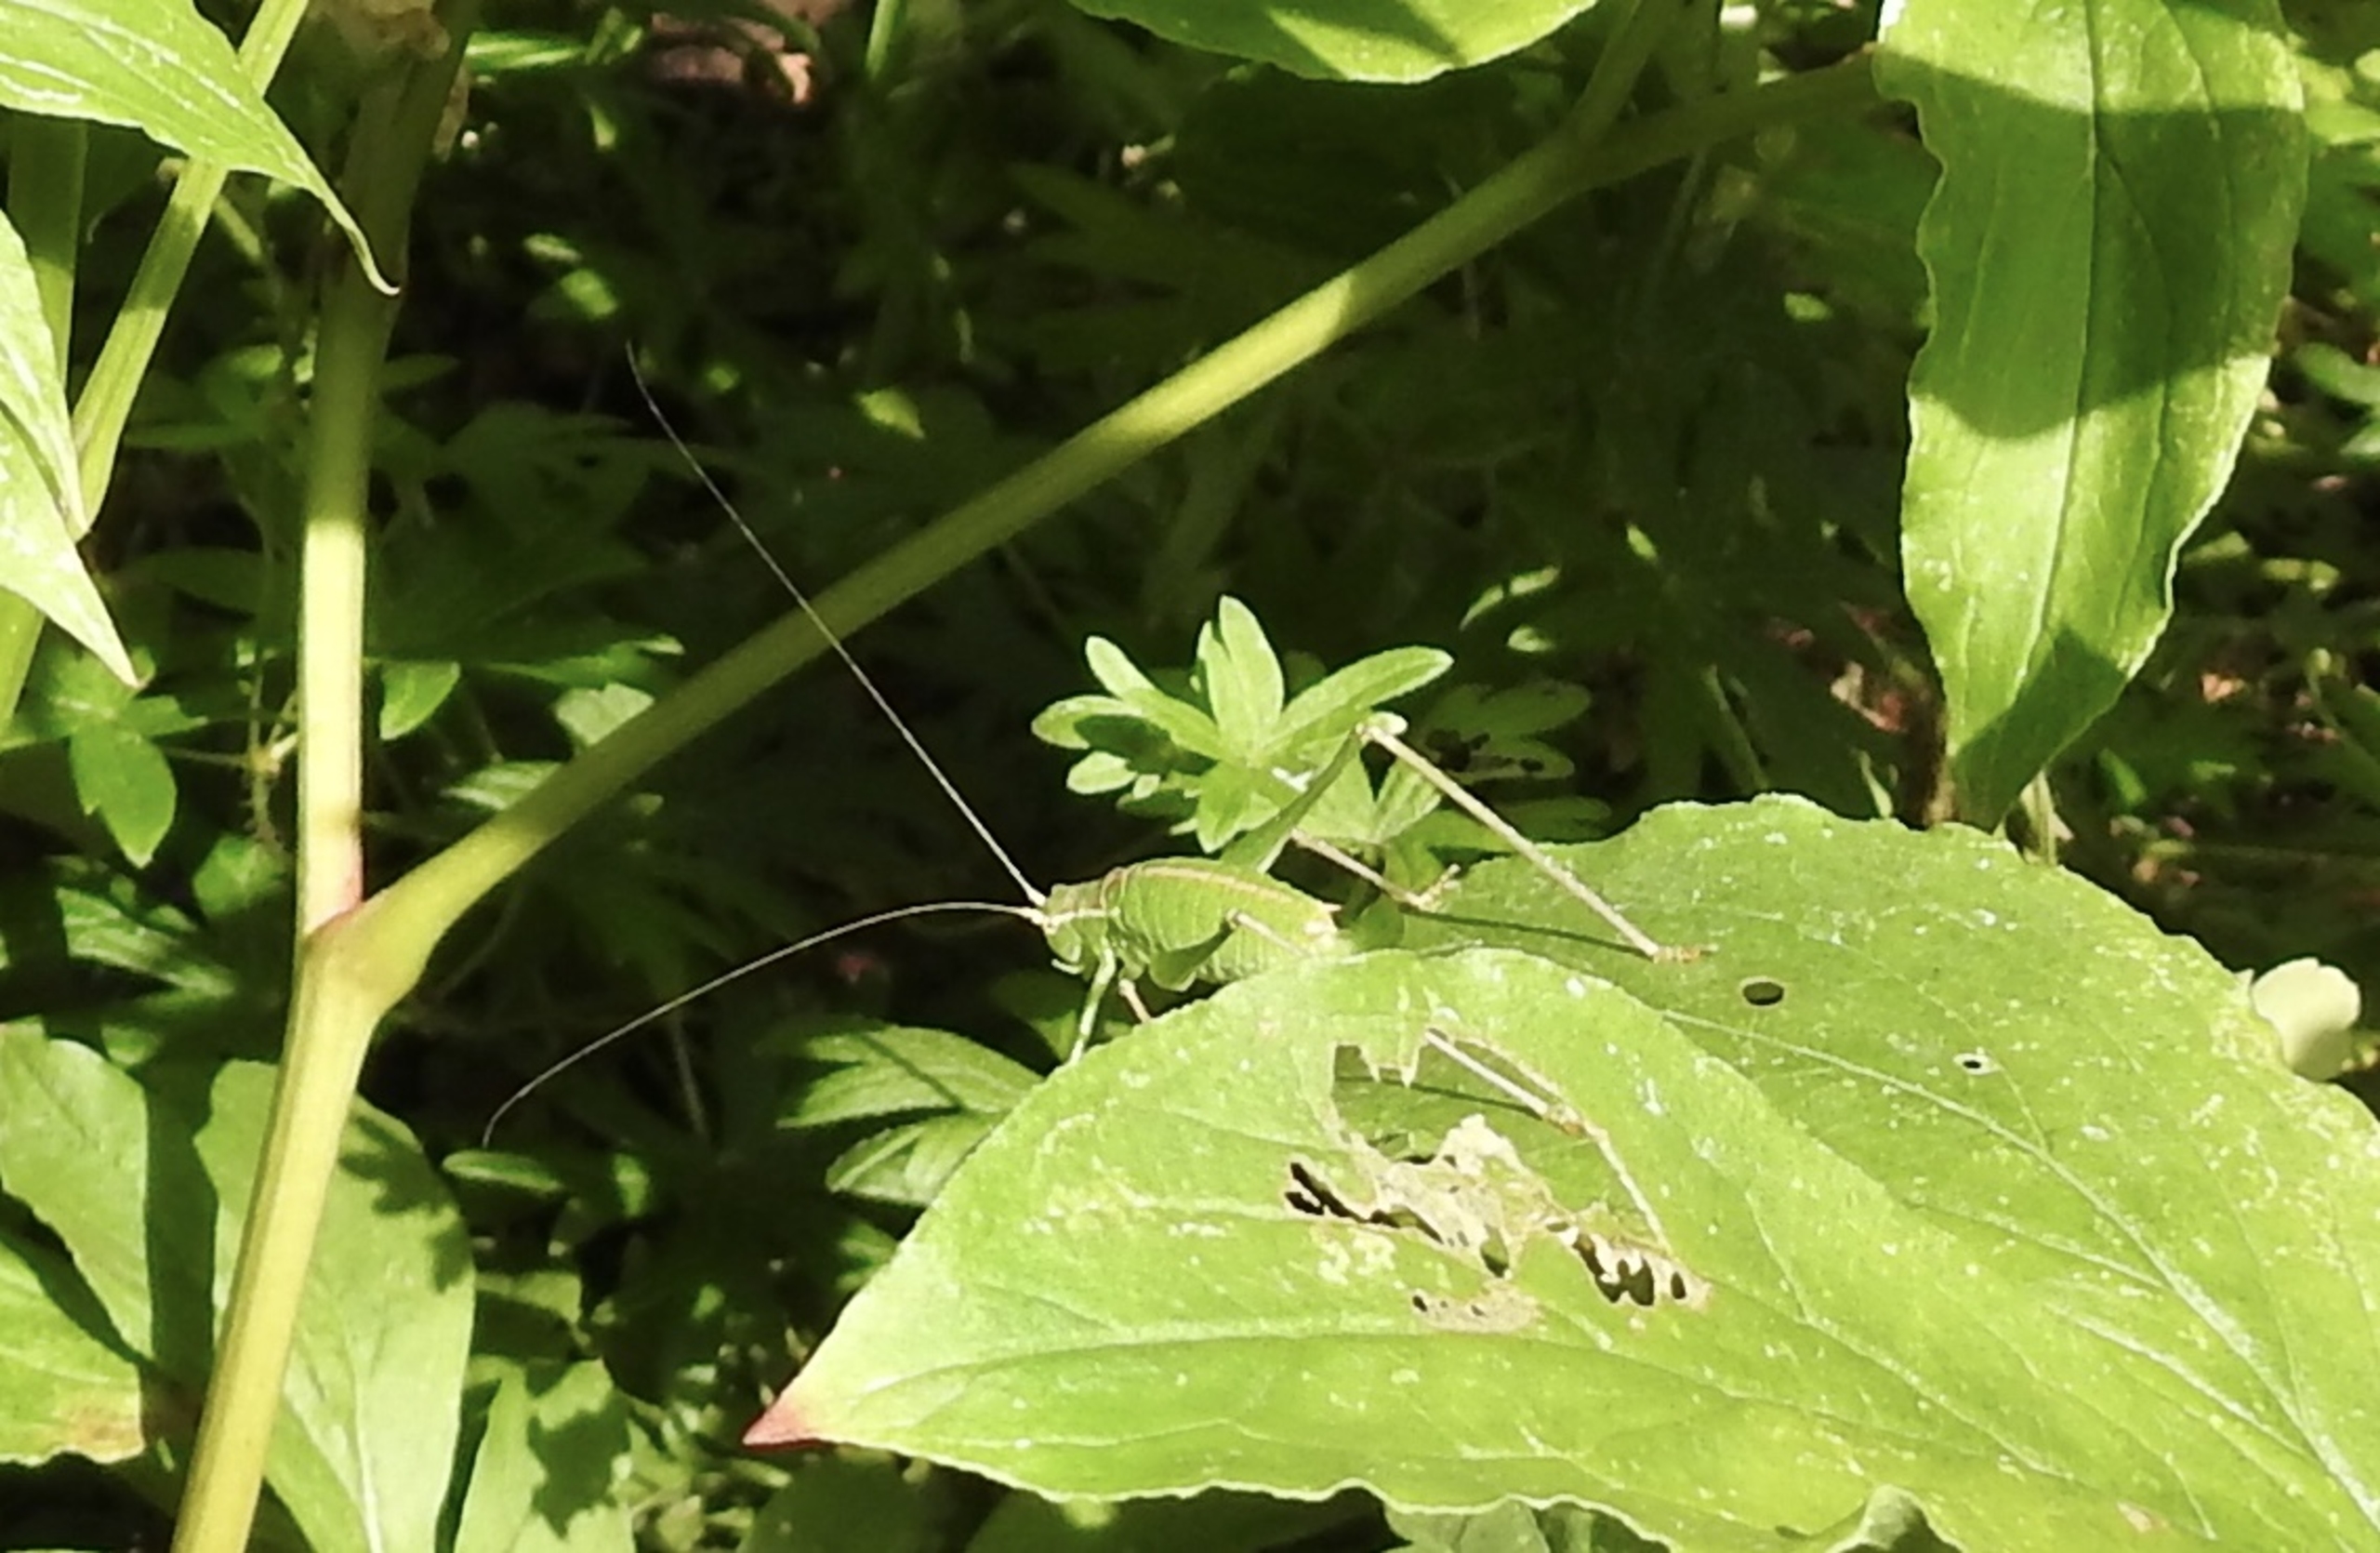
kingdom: Animalia
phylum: Arthropoda
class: Insecta
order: Orthoptera
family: Tettigoniidae
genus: Leptophyes
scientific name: Leptophyes punctatissima
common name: Krumknivgræshoppe
